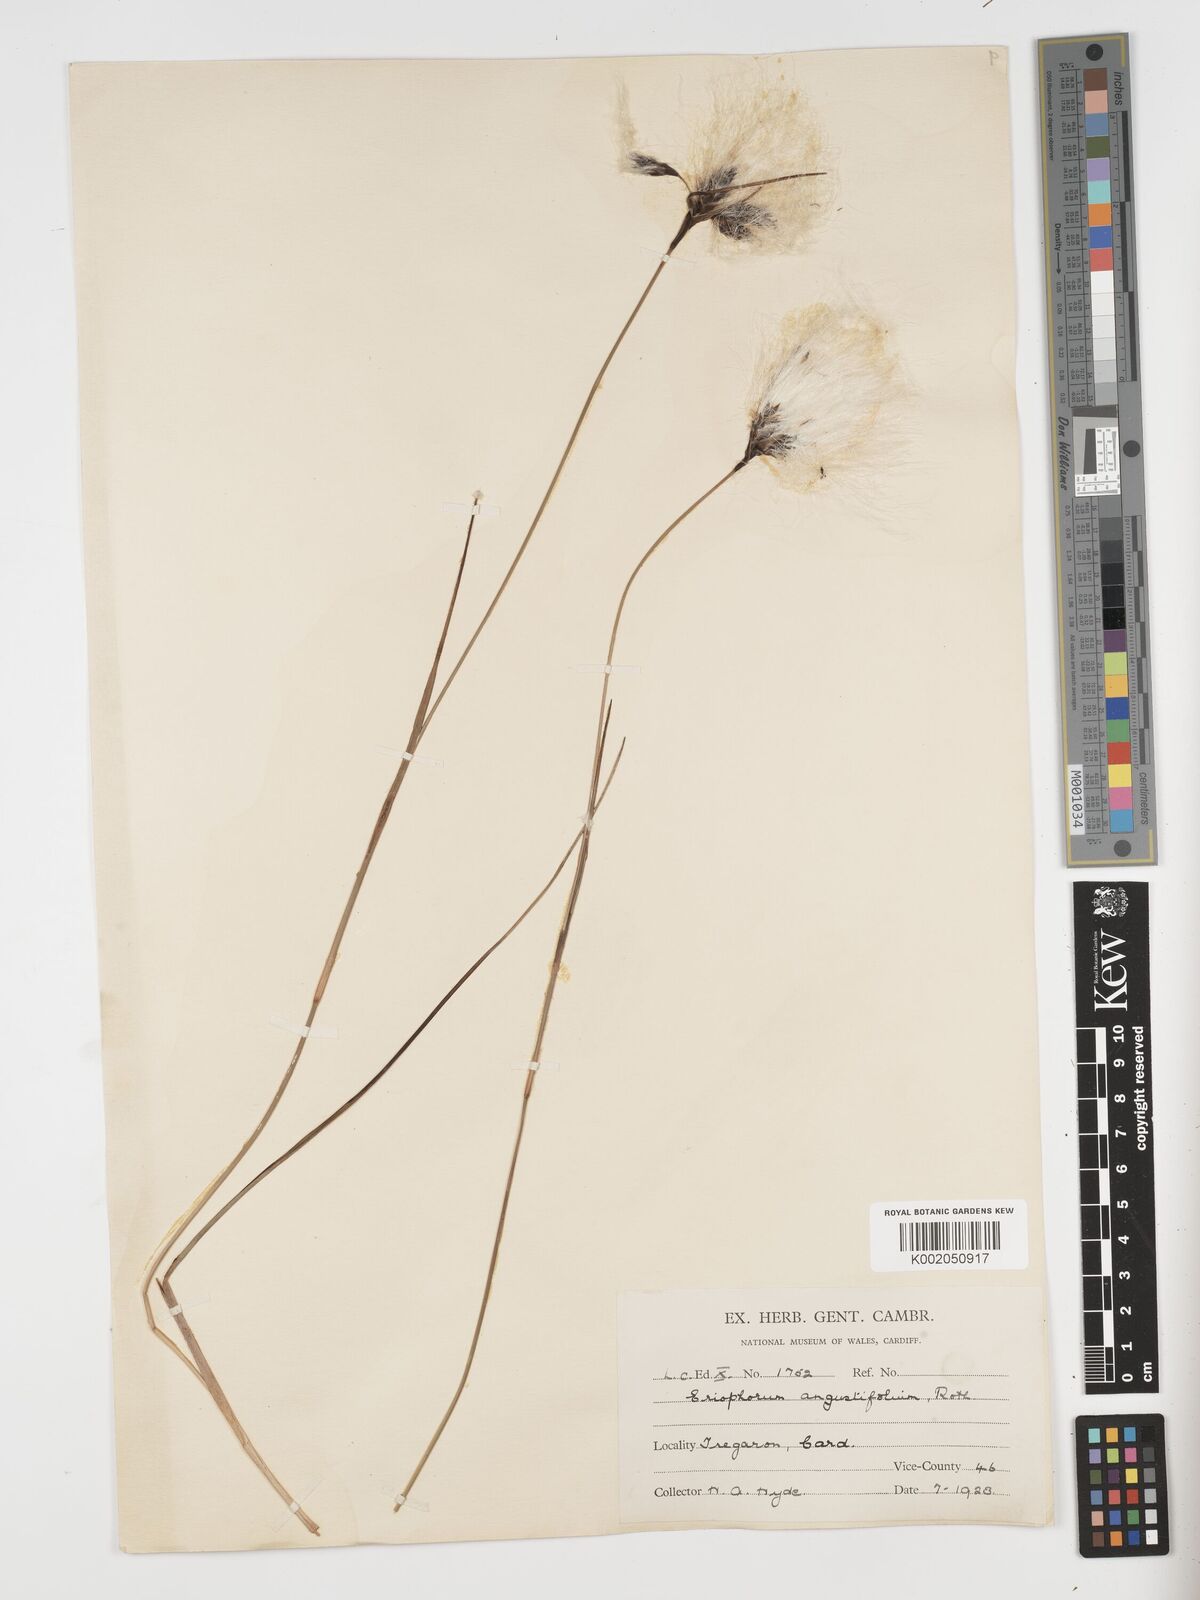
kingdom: Plantae
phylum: Tracheophyta
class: Liliopsida
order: Poales
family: Cyperaceae
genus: Eriophorum
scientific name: Eriophorum angustifolium
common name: Common cottongrass
